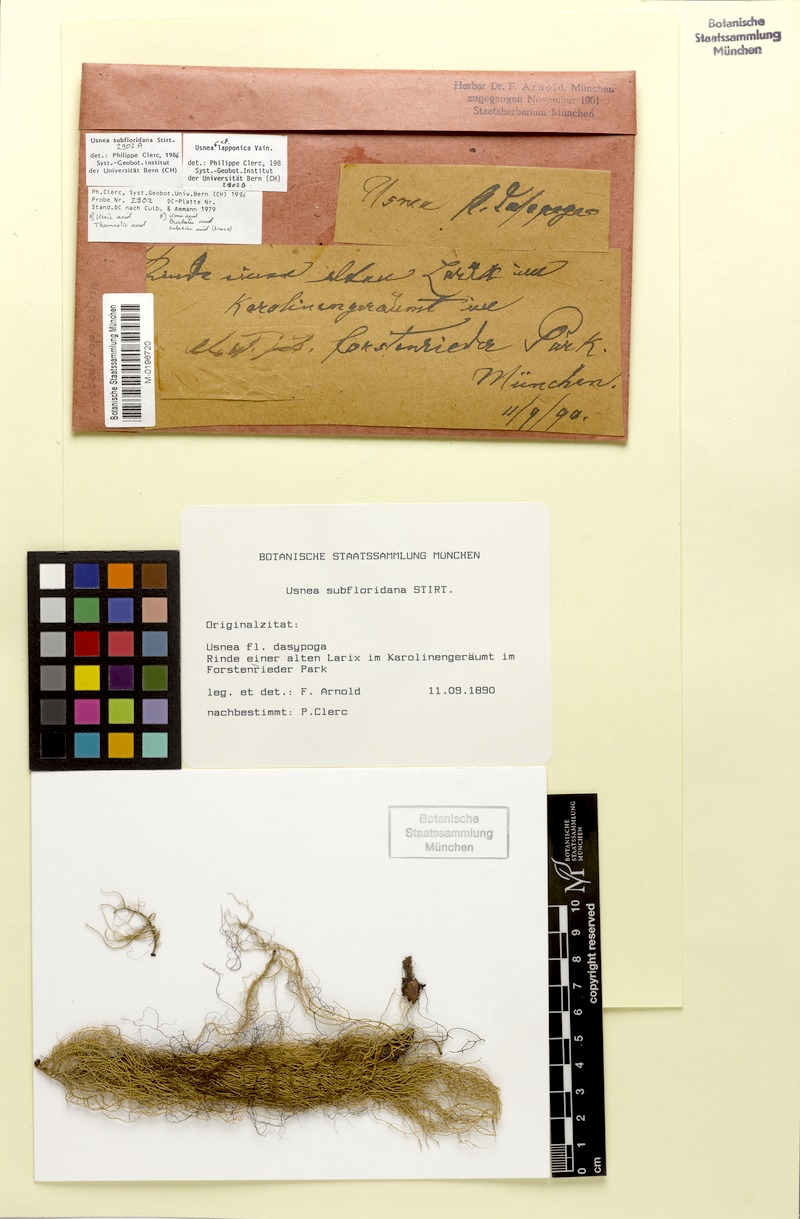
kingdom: Fungi
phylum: Ascomycota
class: Lecanoromycetes
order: Lecanorales
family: Parmeliaceae
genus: Usnea
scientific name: Usnea lapponica
